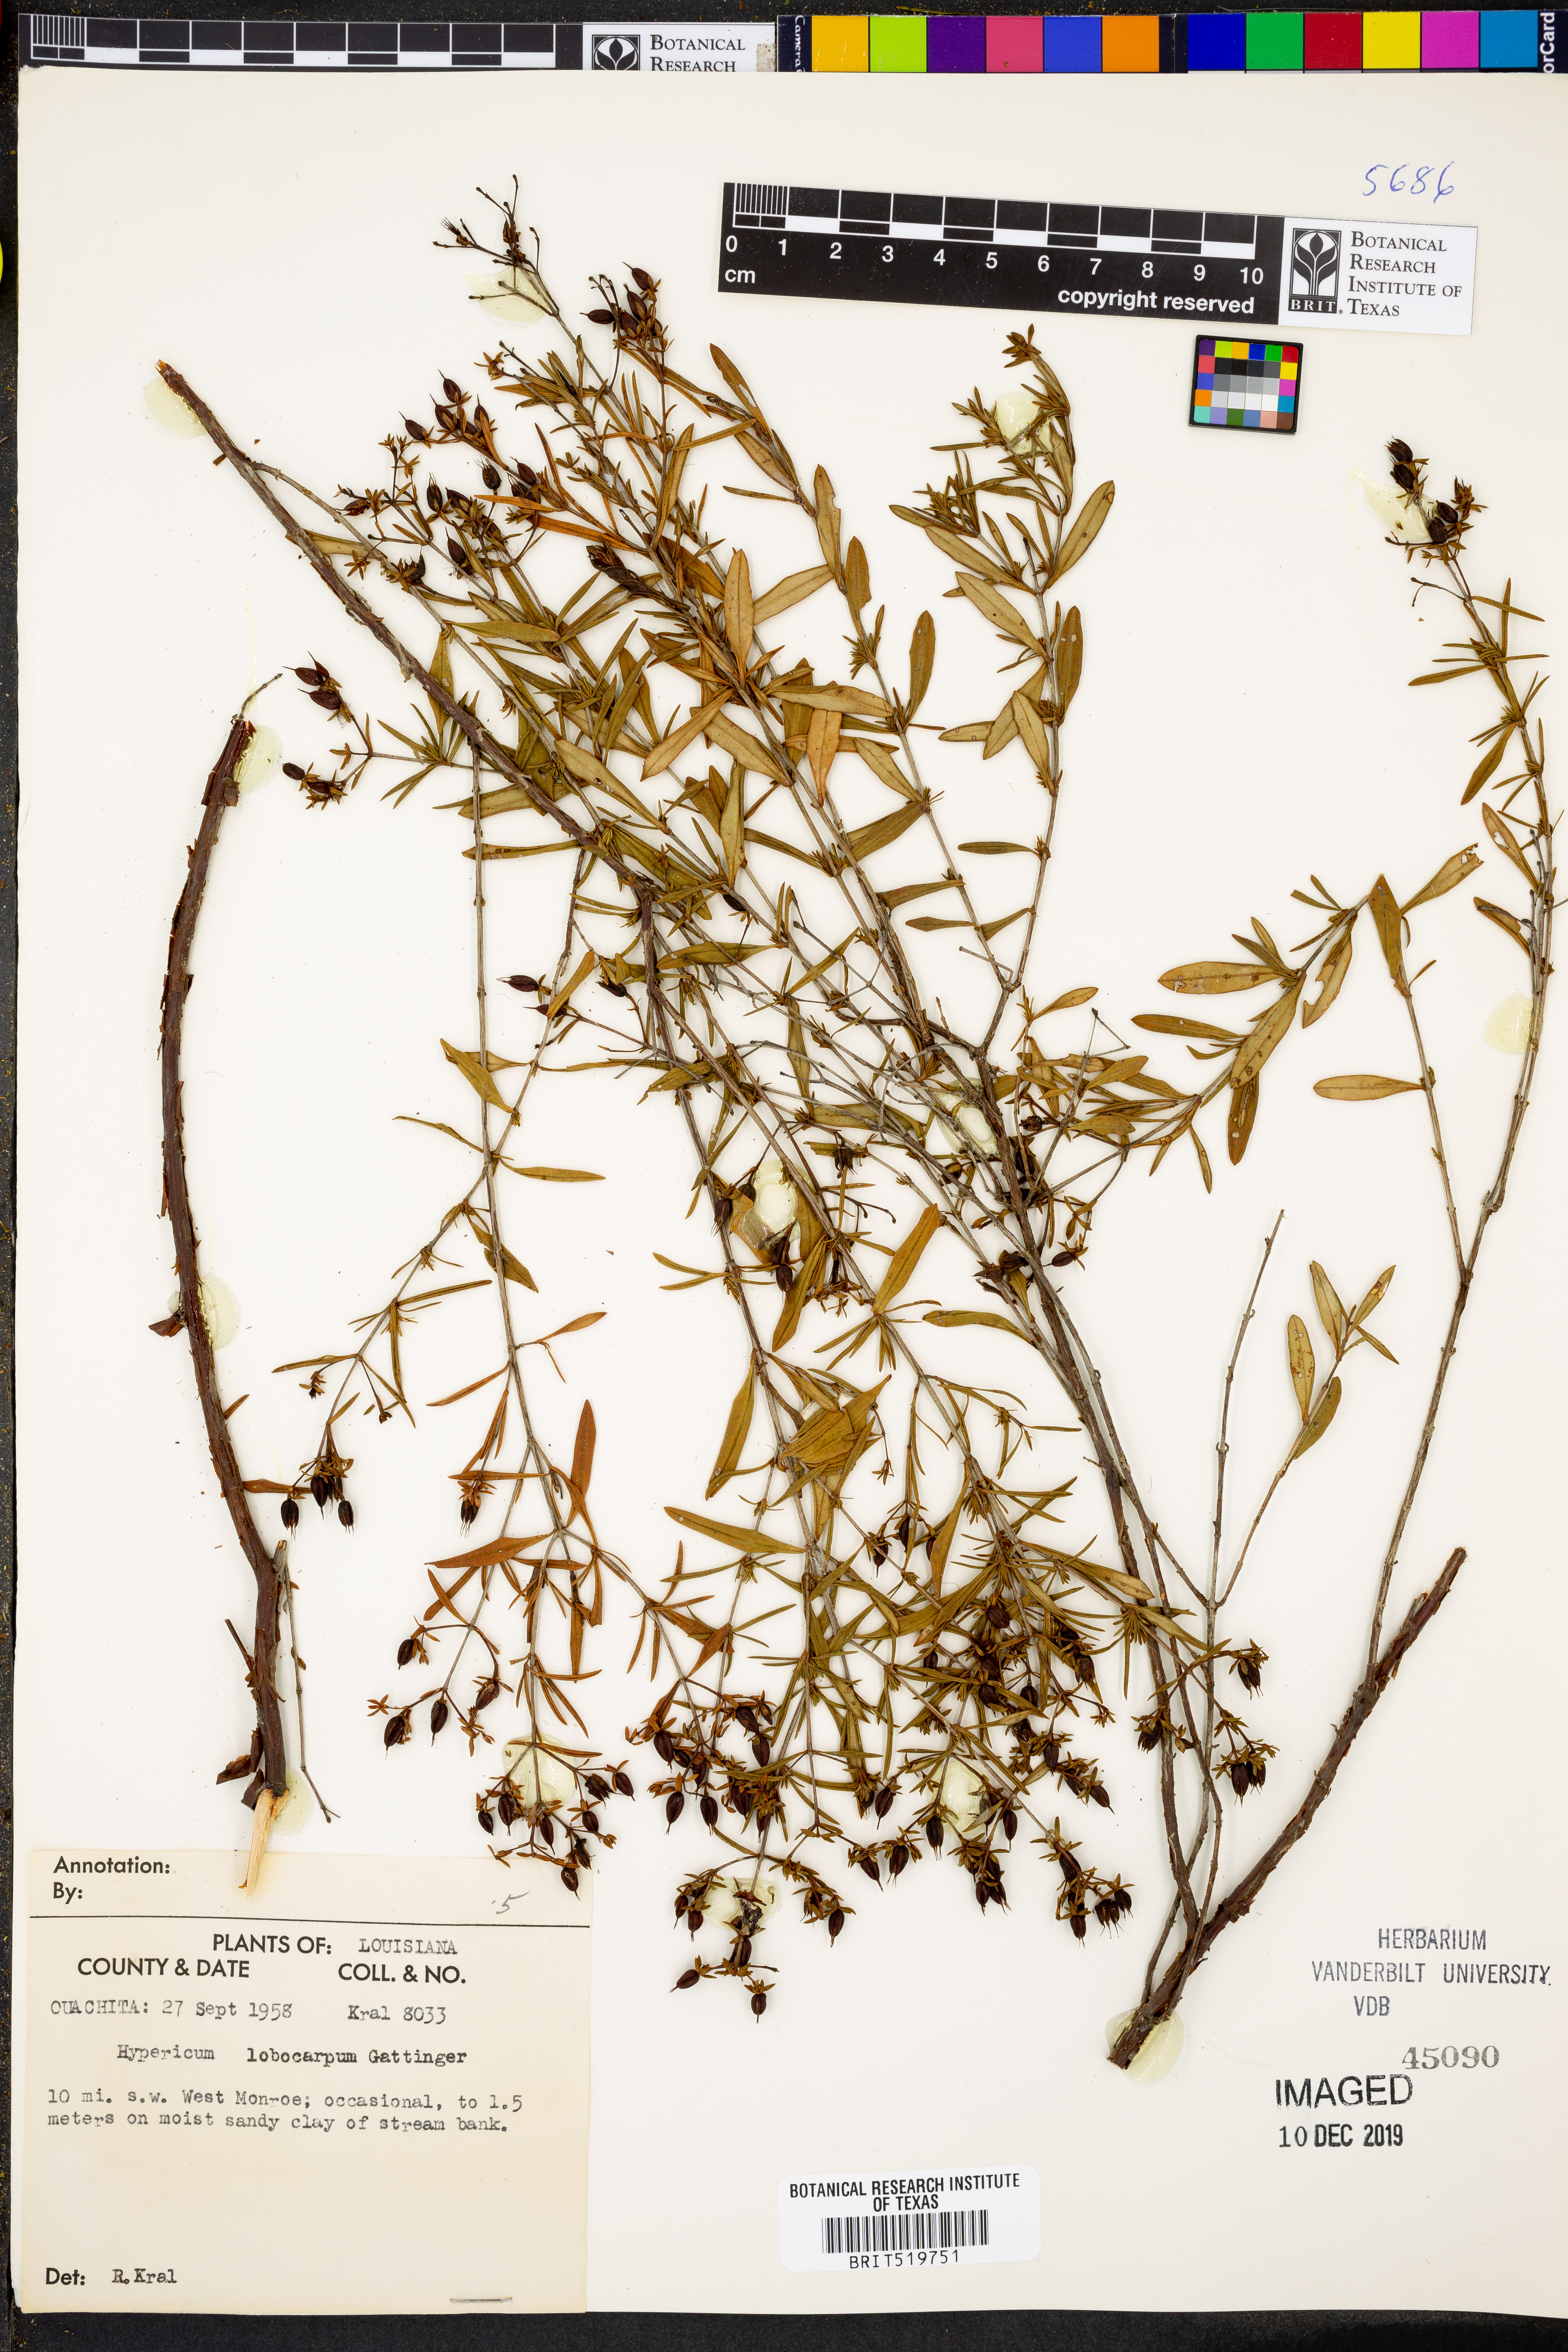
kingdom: Plantae
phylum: Tracheophyta
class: Magnoliopsida
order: Malpighiales
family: Hypericaceae
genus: Hypericum
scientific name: Hypericum lobocarpum
